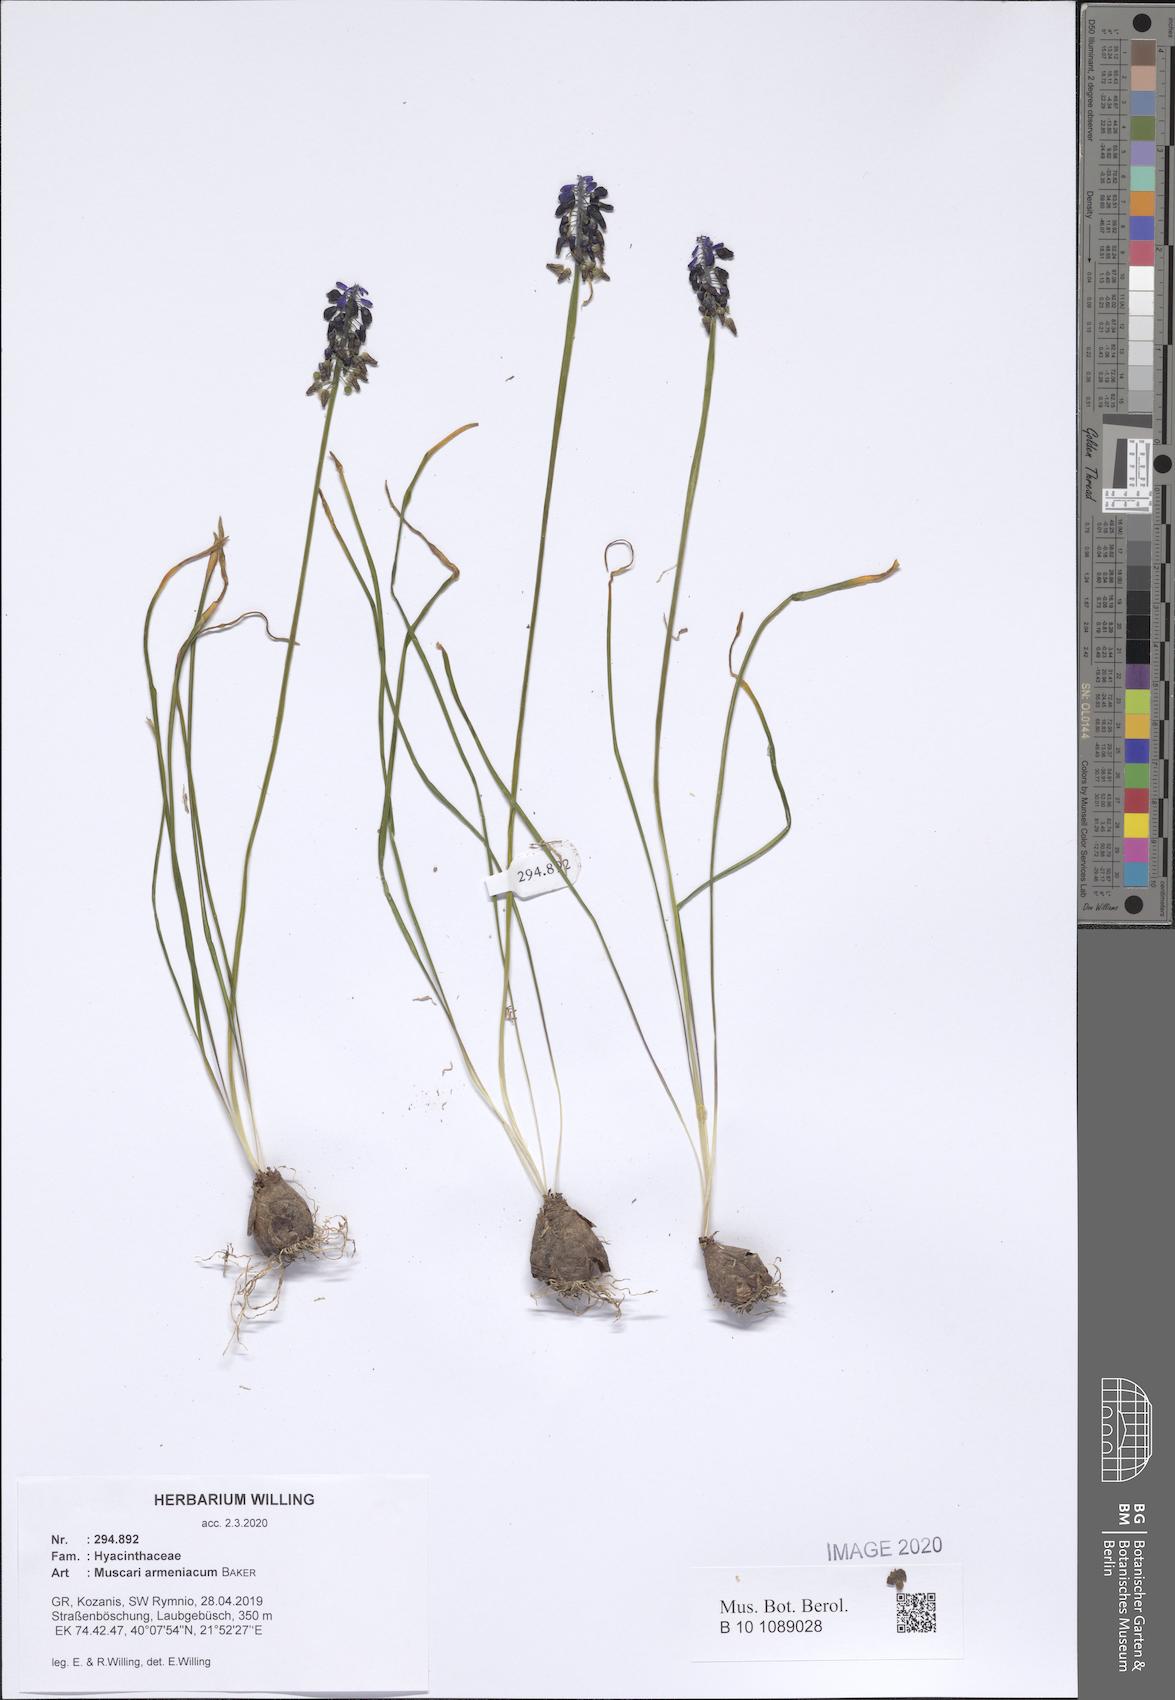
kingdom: Plantae
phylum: Tracheophyta
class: Liliopsida
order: Asparagales
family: Asparagaceae
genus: Muscari
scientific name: Muscari armeniacum
